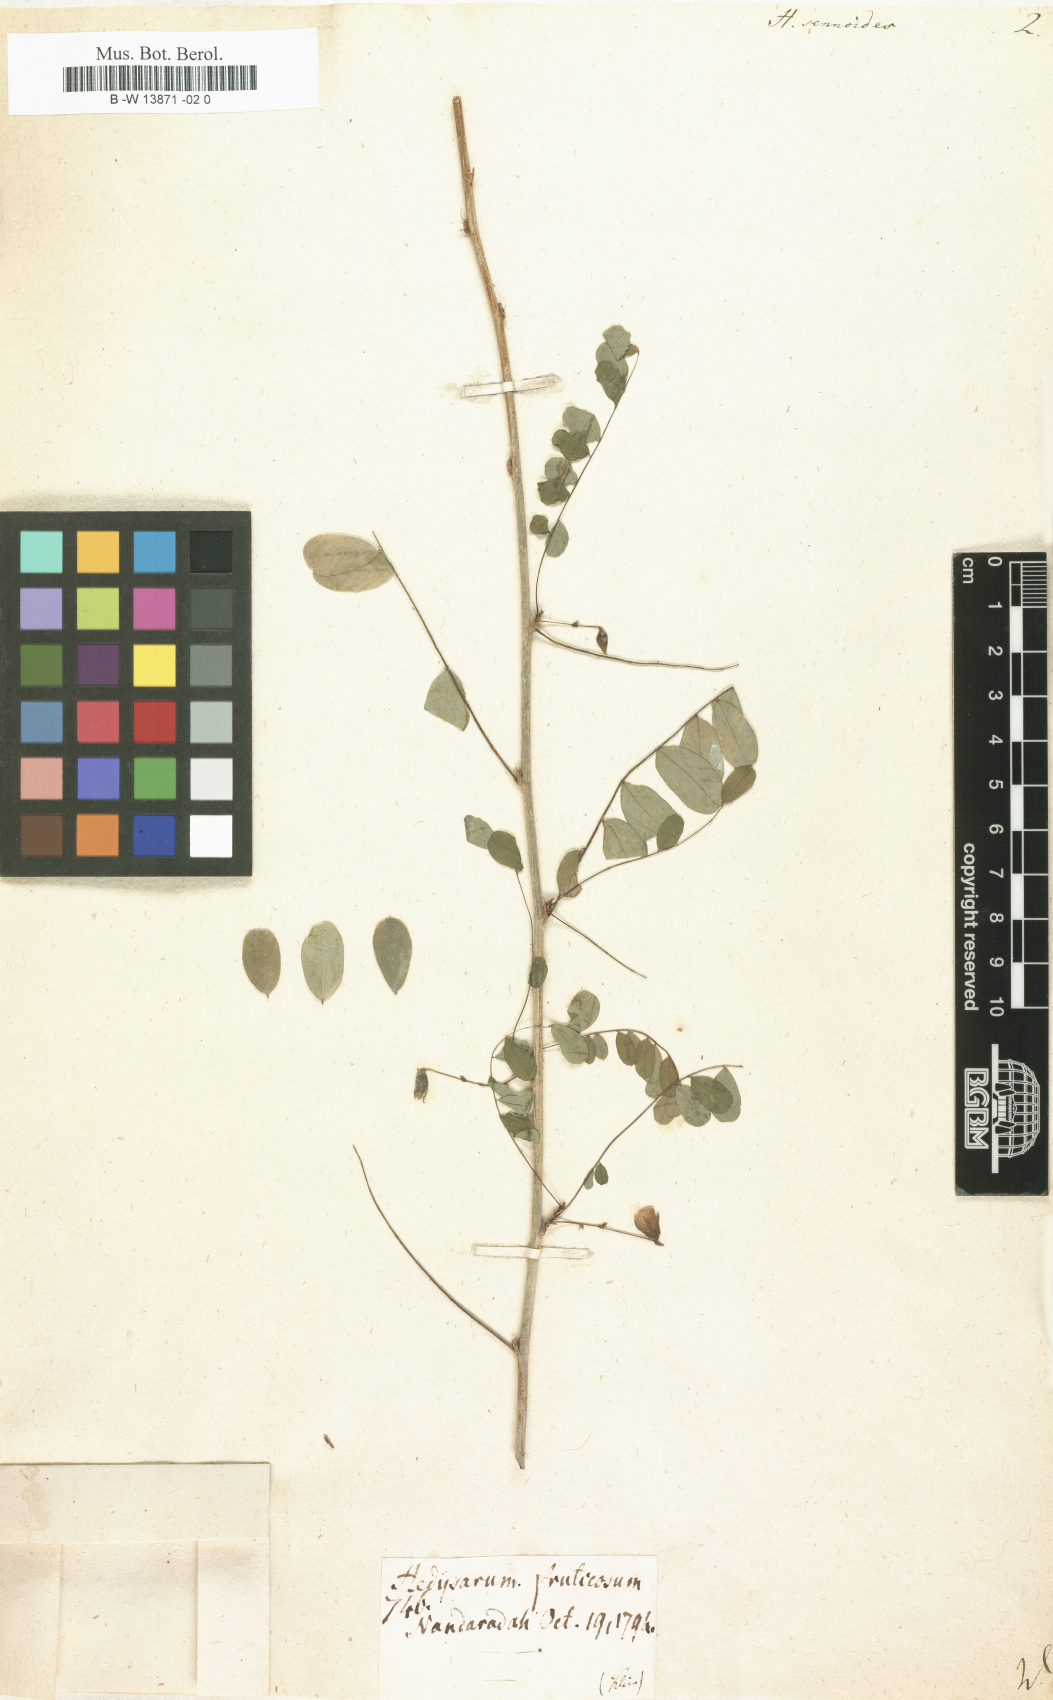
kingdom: Plantae
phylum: Tracheophyta
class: Magnoliopsida
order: Fabales
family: Fabaceae
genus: Ormocarpum
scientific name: Ormocarpum sennoides
